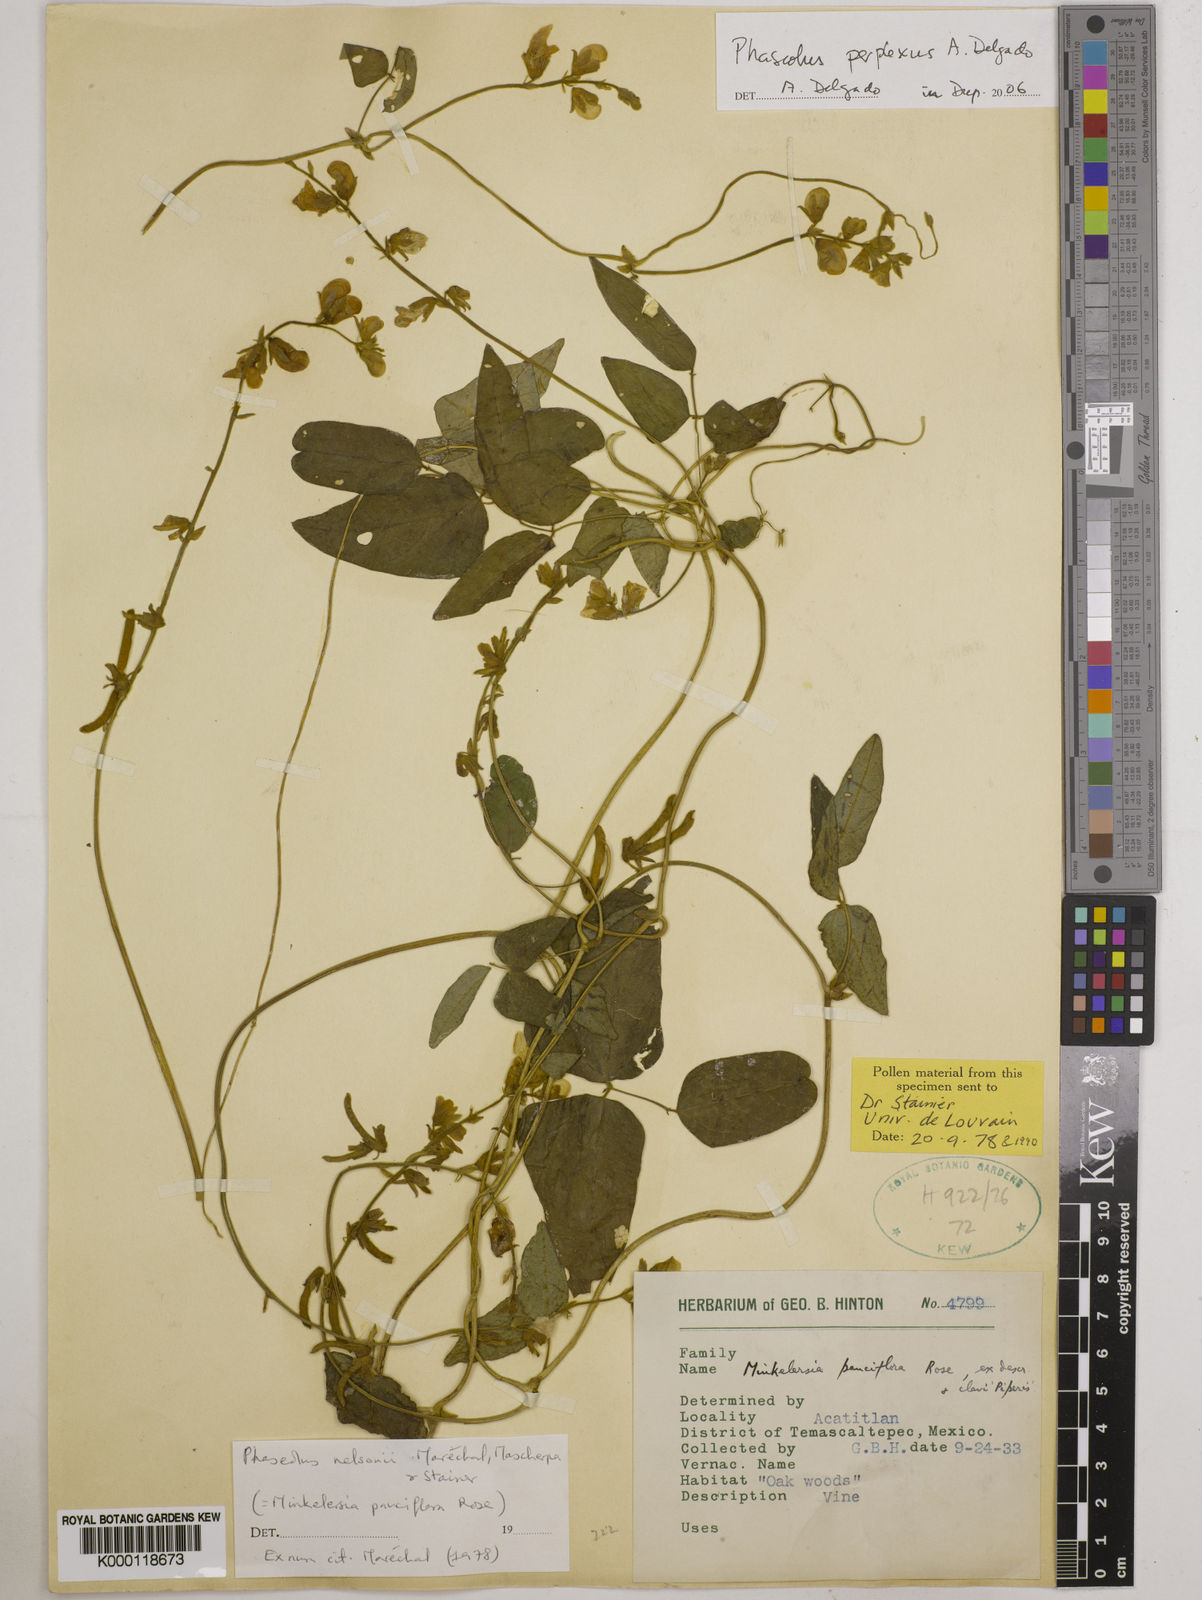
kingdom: Plantae
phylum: Tracheophyta
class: Magnoliopsida
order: Fabales
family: Fabaceae
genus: Phaseolus
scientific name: Phaseolus perplexus
